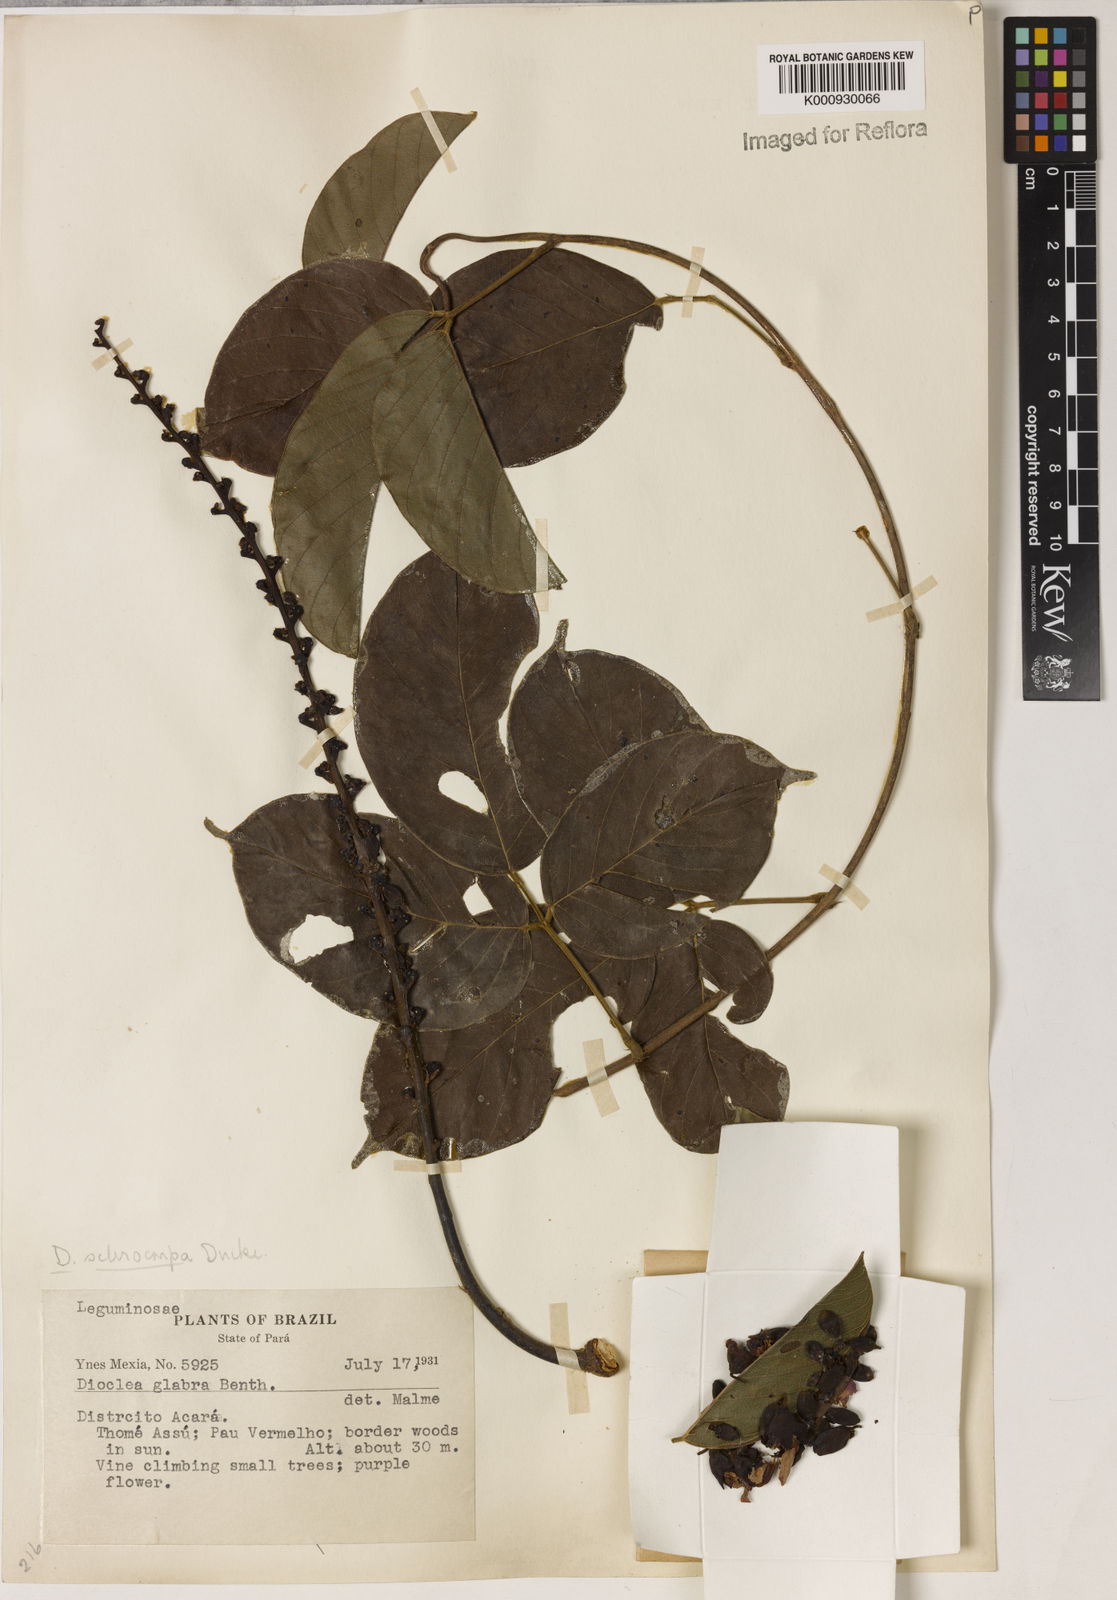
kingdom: Plantae
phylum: Tracheophyta
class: Magnoliopsida
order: Fabales
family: Fabaceae
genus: Macropsychanthus
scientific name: Macropsychanthus sclerocarpus
